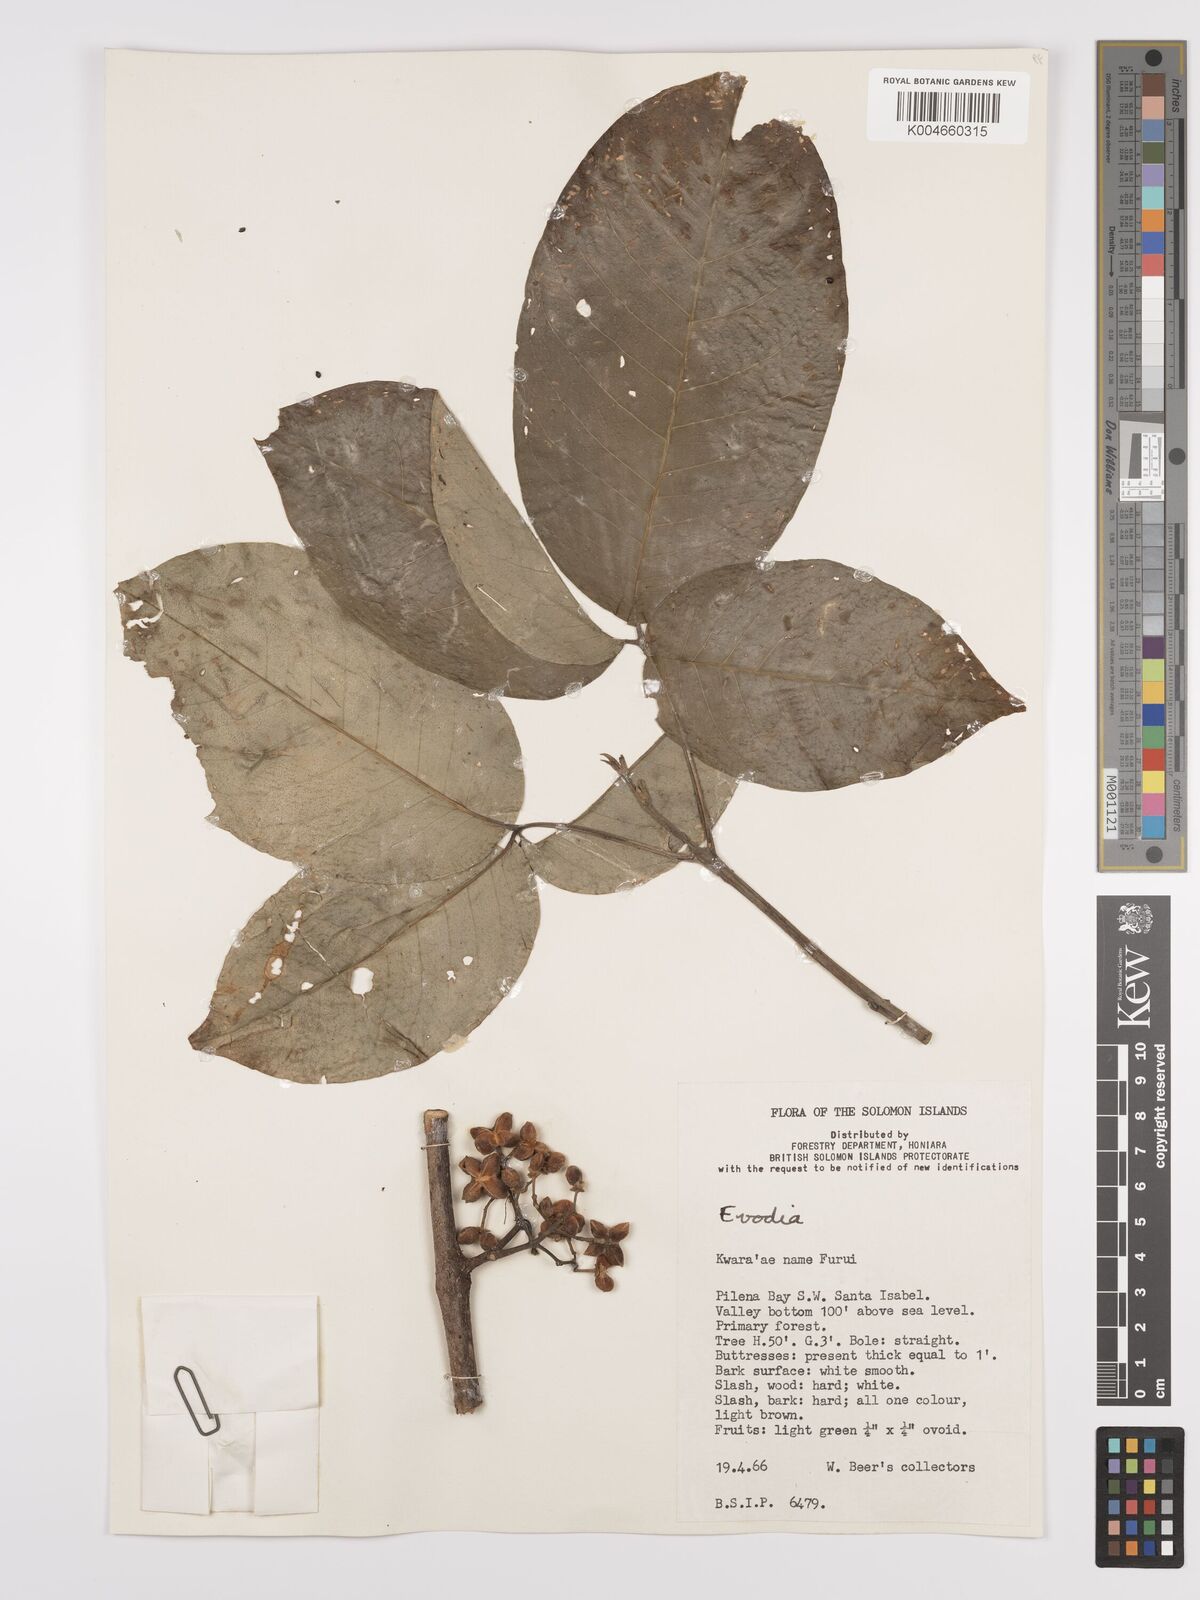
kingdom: Plantae
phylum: Tracheophyta
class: Magnoliopsida
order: Sapindales
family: Rutaceae
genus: Euodia
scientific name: Euodia
